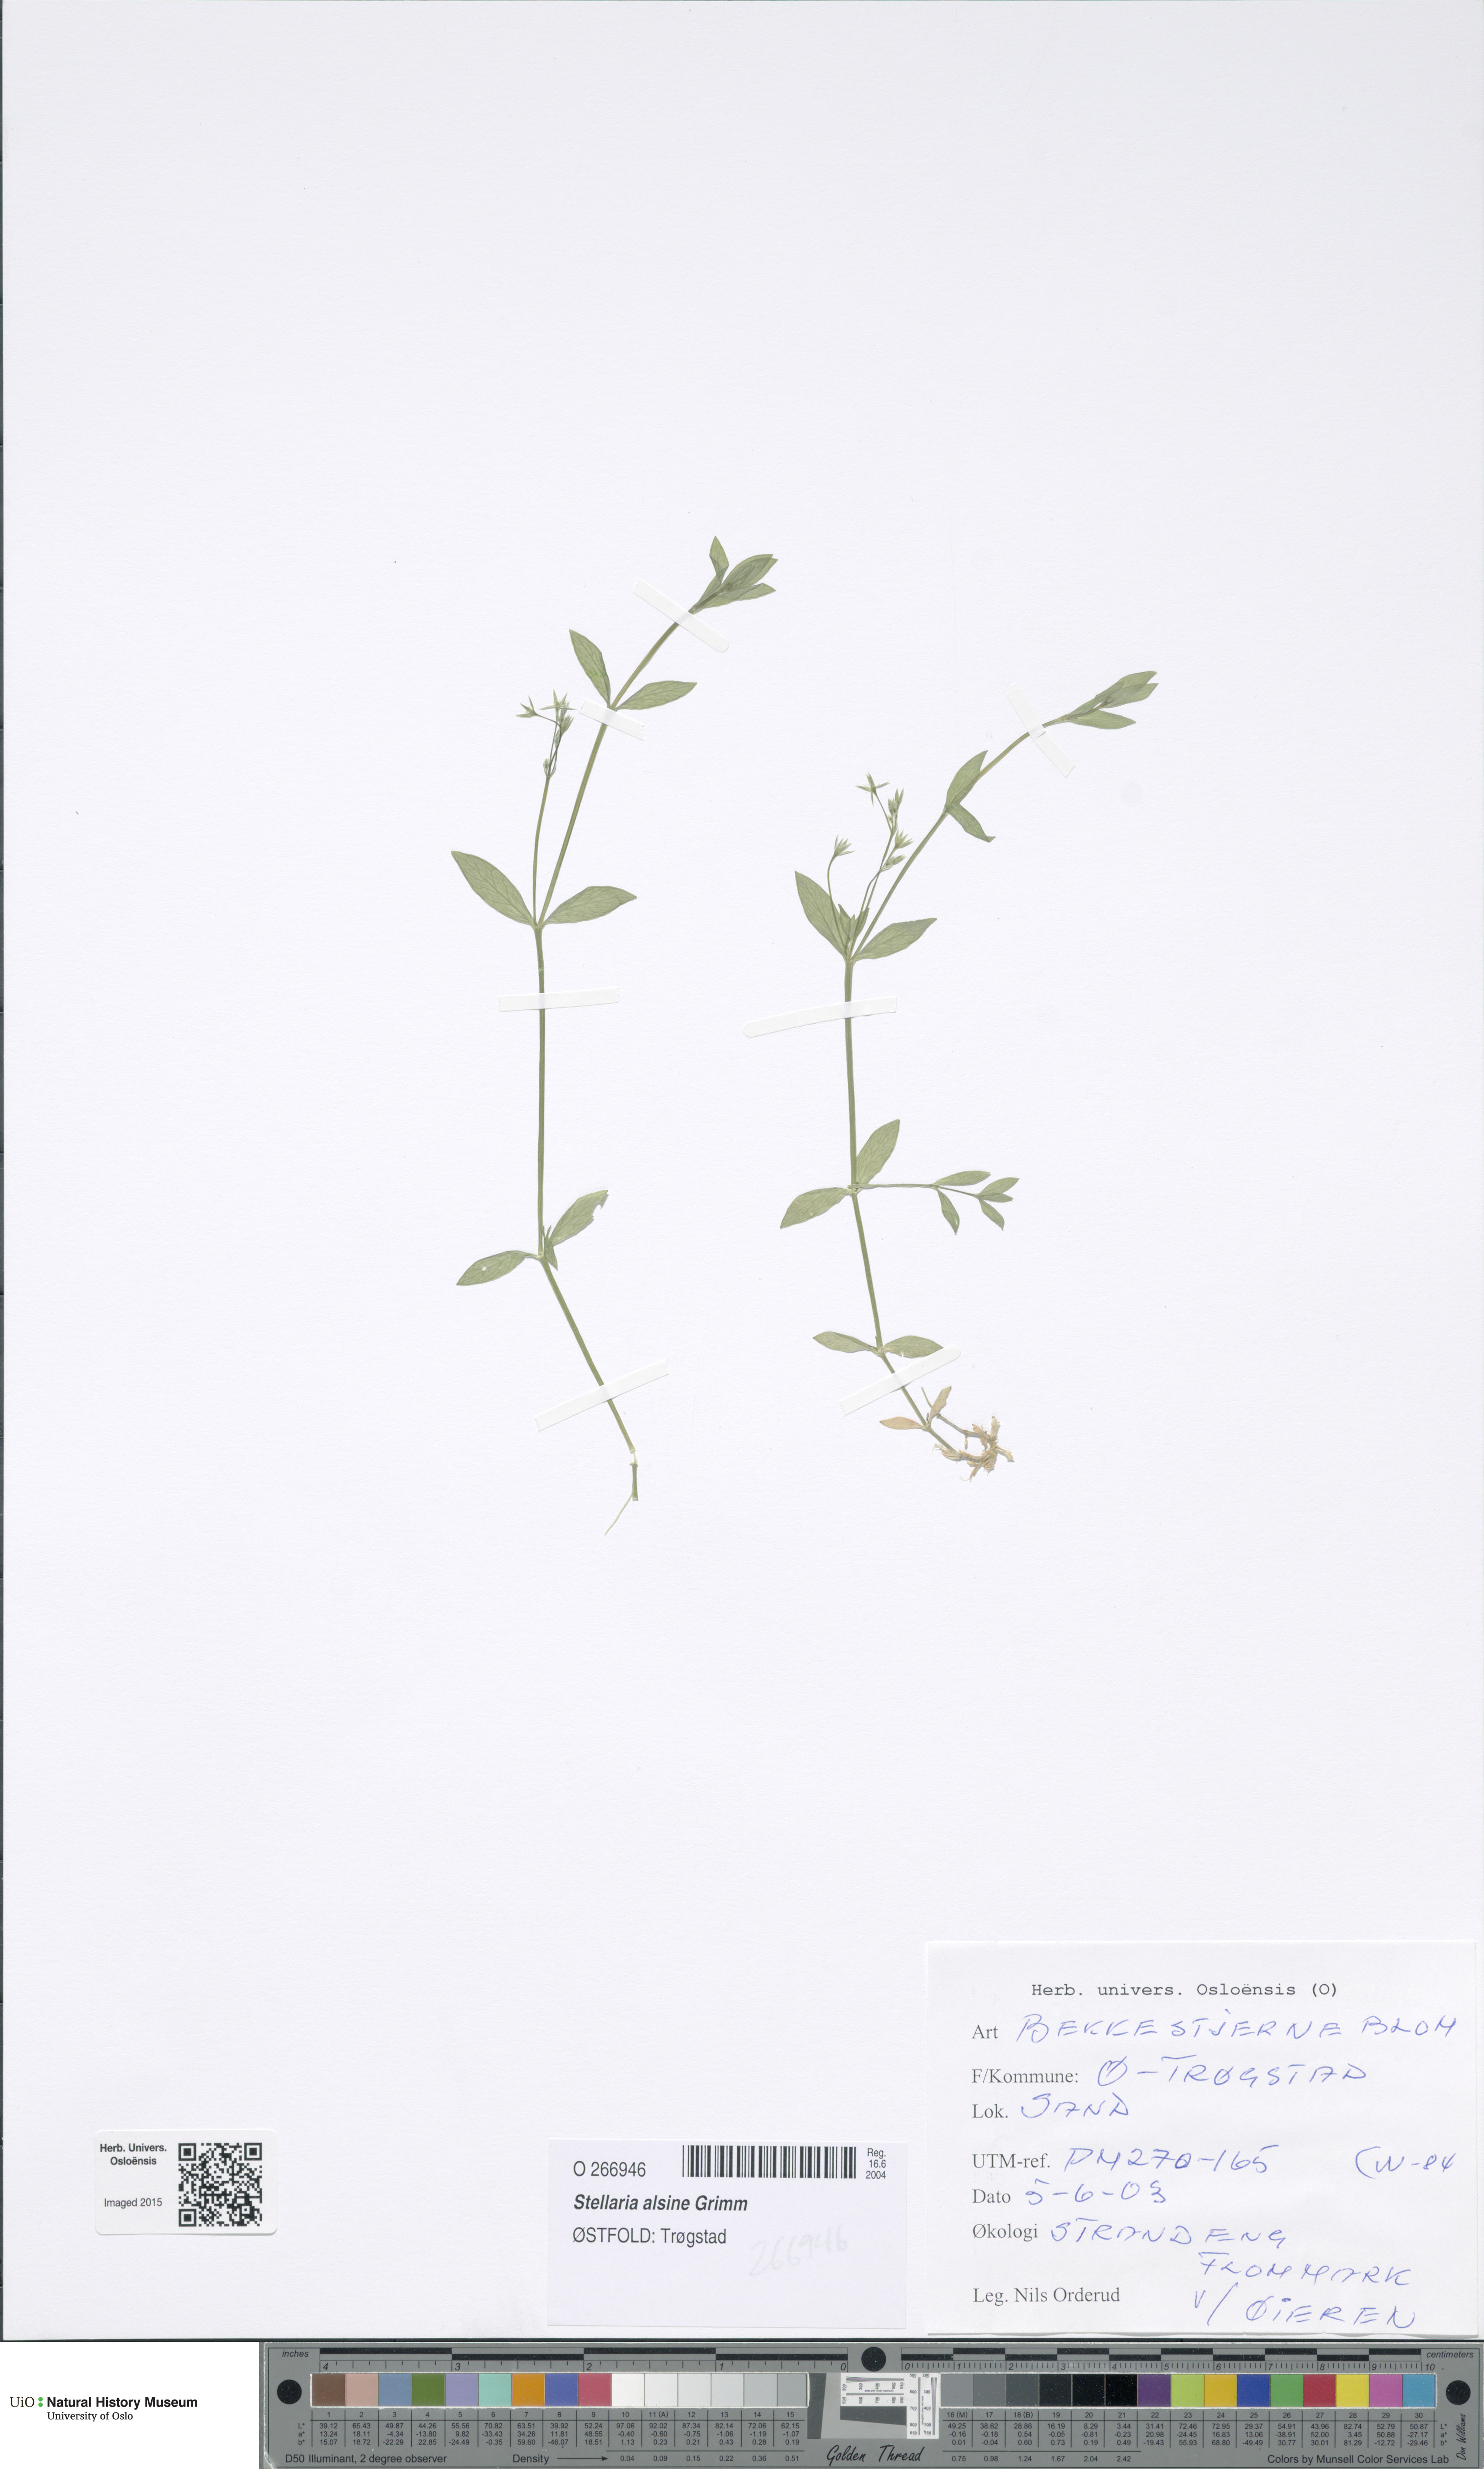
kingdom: Plantae
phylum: Tracheophyta
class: Magnoliopsida
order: Caryophyllales
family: Caryophyllaceae
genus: Stellaria
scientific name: Stellaria alsine
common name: Bog stitchwort
